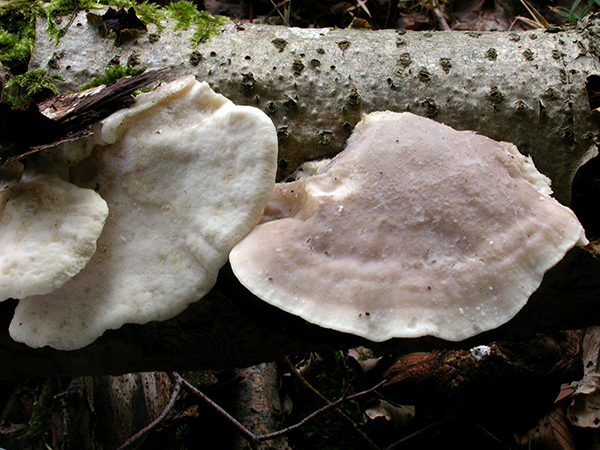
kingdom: Fungi
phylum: Basidiomycota
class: Agaricomycetes
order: Polyporales
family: Incrustoporiaceae
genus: Tyromyces
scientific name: Tyromyces chioneus
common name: stor blødporesvamp
